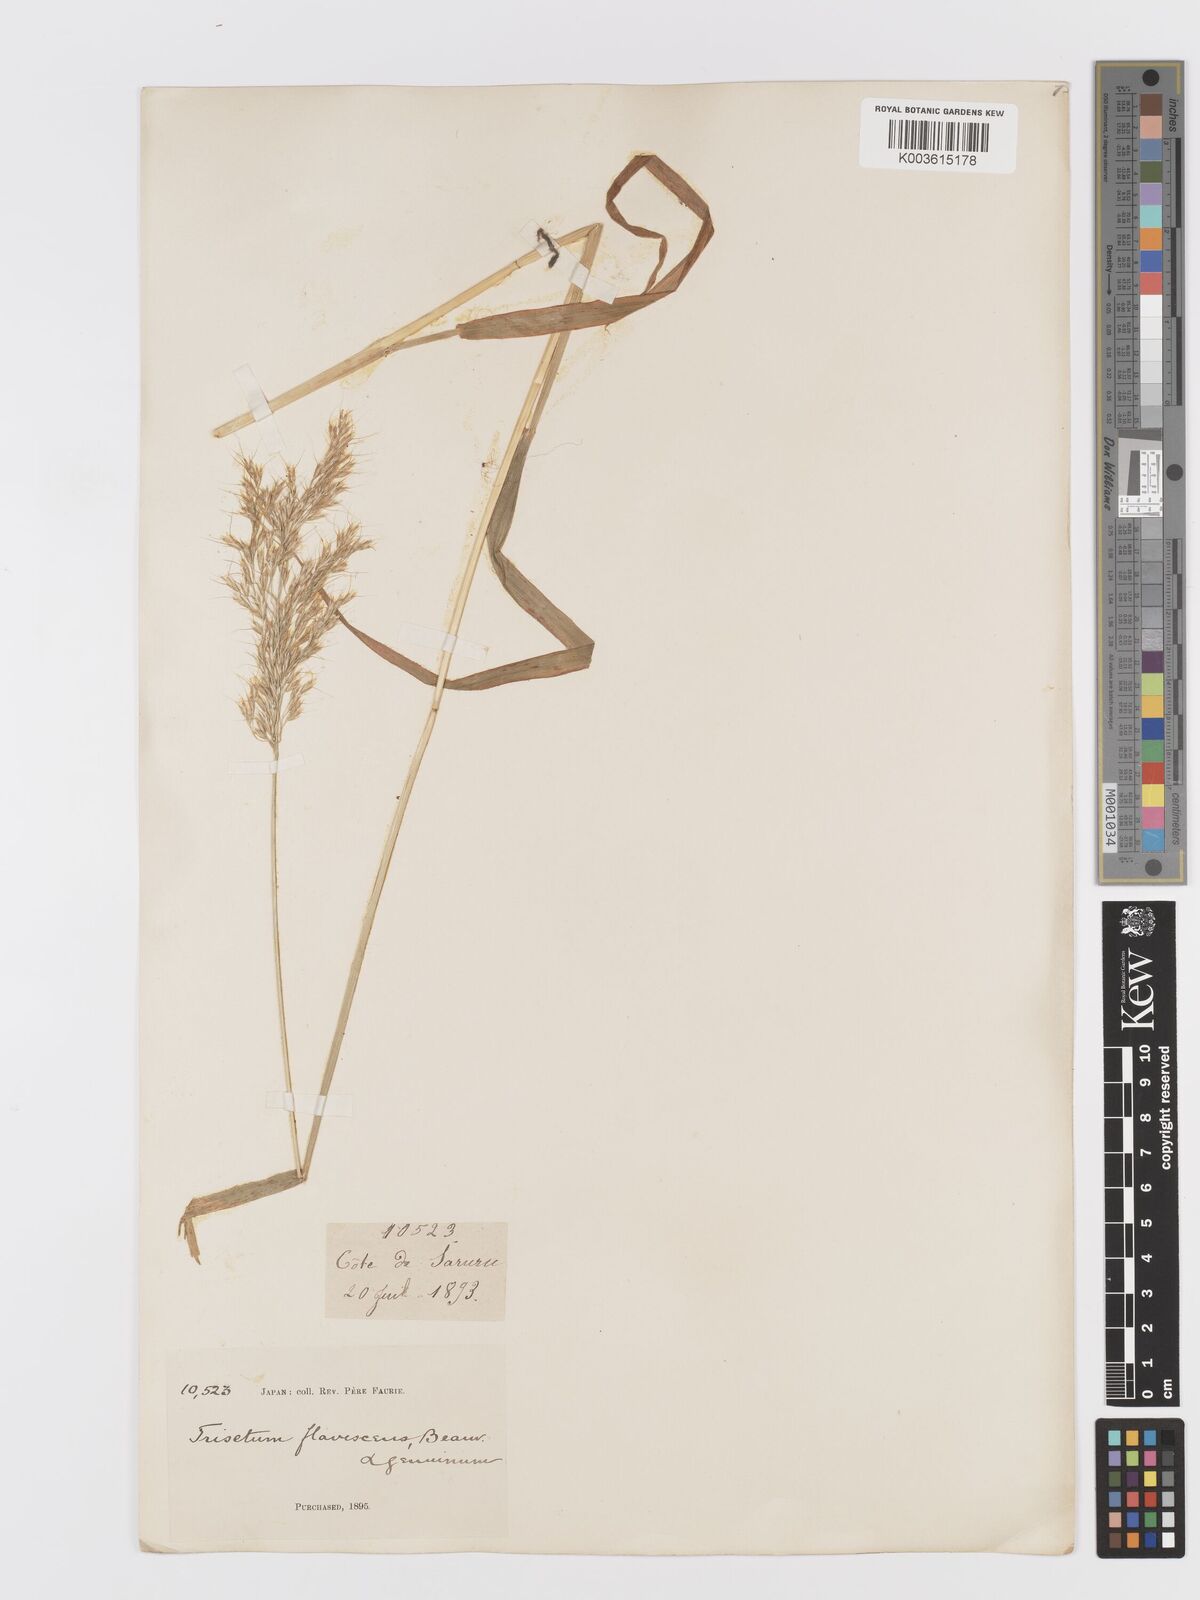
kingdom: Plantae
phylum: Tracheophyta
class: Liliopsida
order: Poales
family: Poaceae
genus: Sibirotrisetum
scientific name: Sibirotrisetum bifidum
